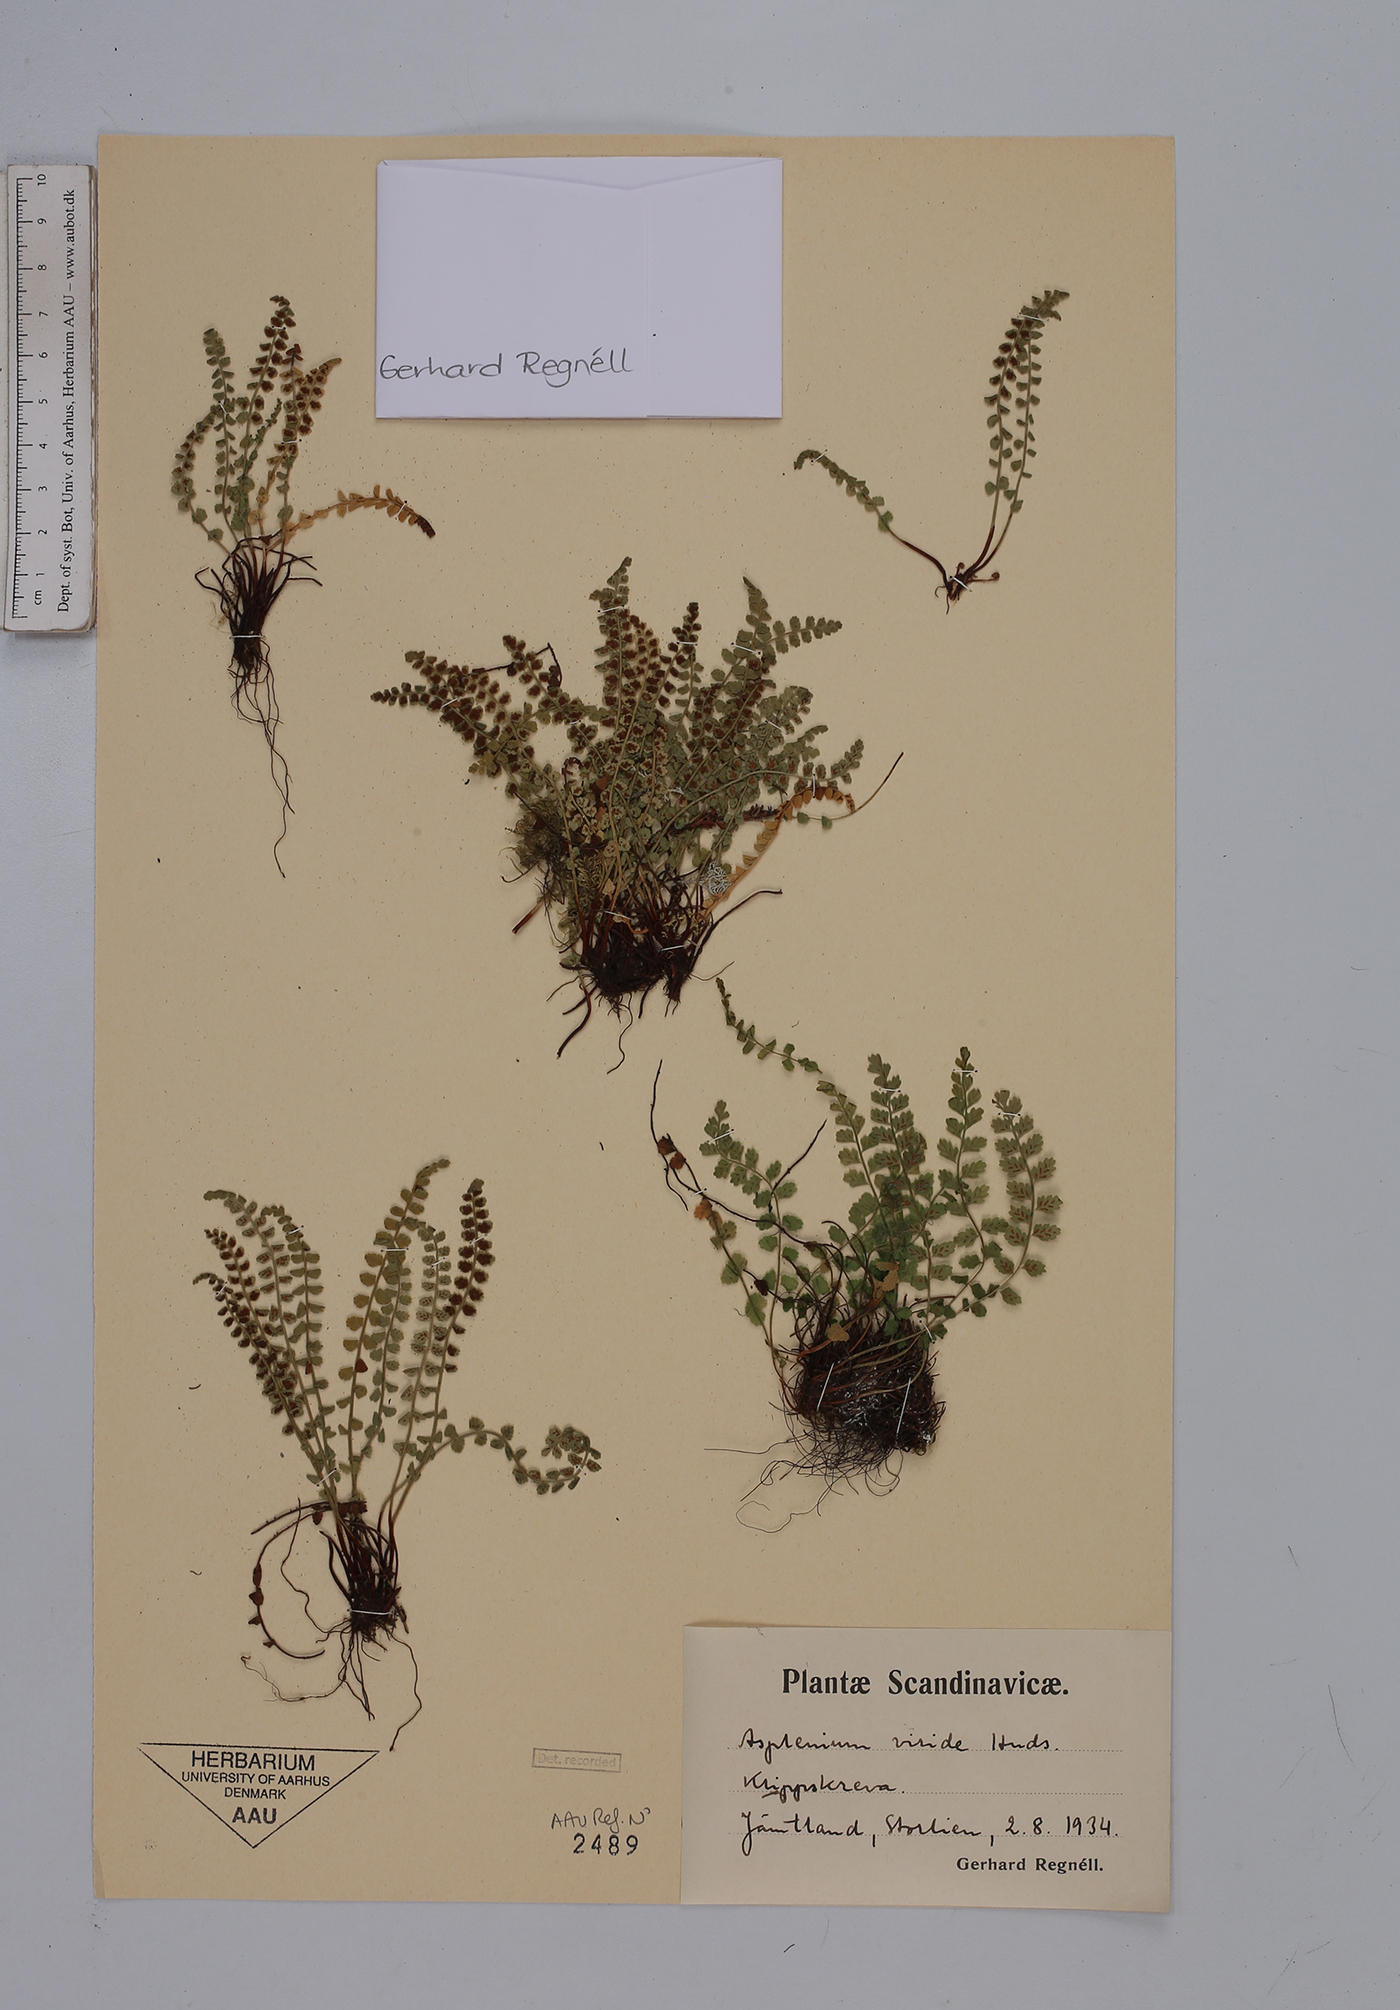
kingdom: Plantae
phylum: Tracheophyta
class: Polypodiopsida
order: Polypodiales
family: Aspleniaceae
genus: Asplenium
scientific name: Asplenium viride
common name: Green spleenwort
